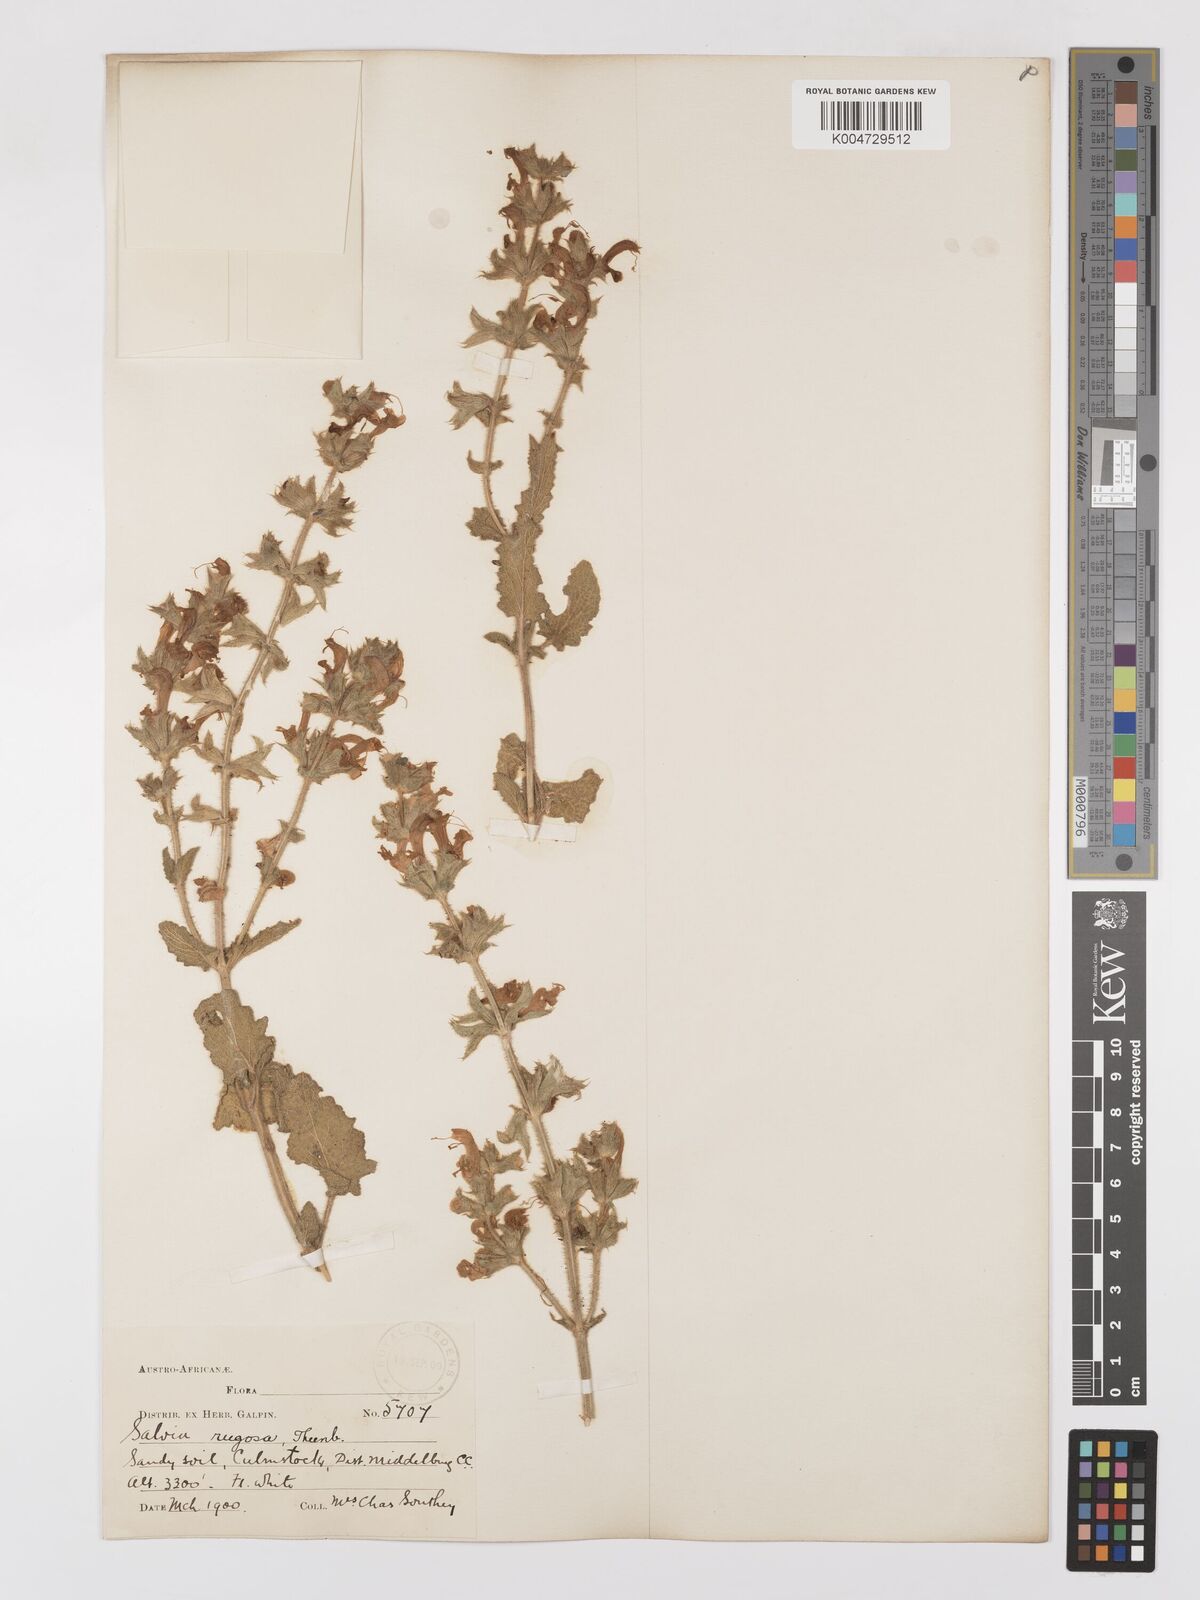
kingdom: Plantae
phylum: Tracheophyta
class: Magnoliopsida
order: Lamiales
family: Lamiaceae
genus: Salvia
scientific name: Salvia
